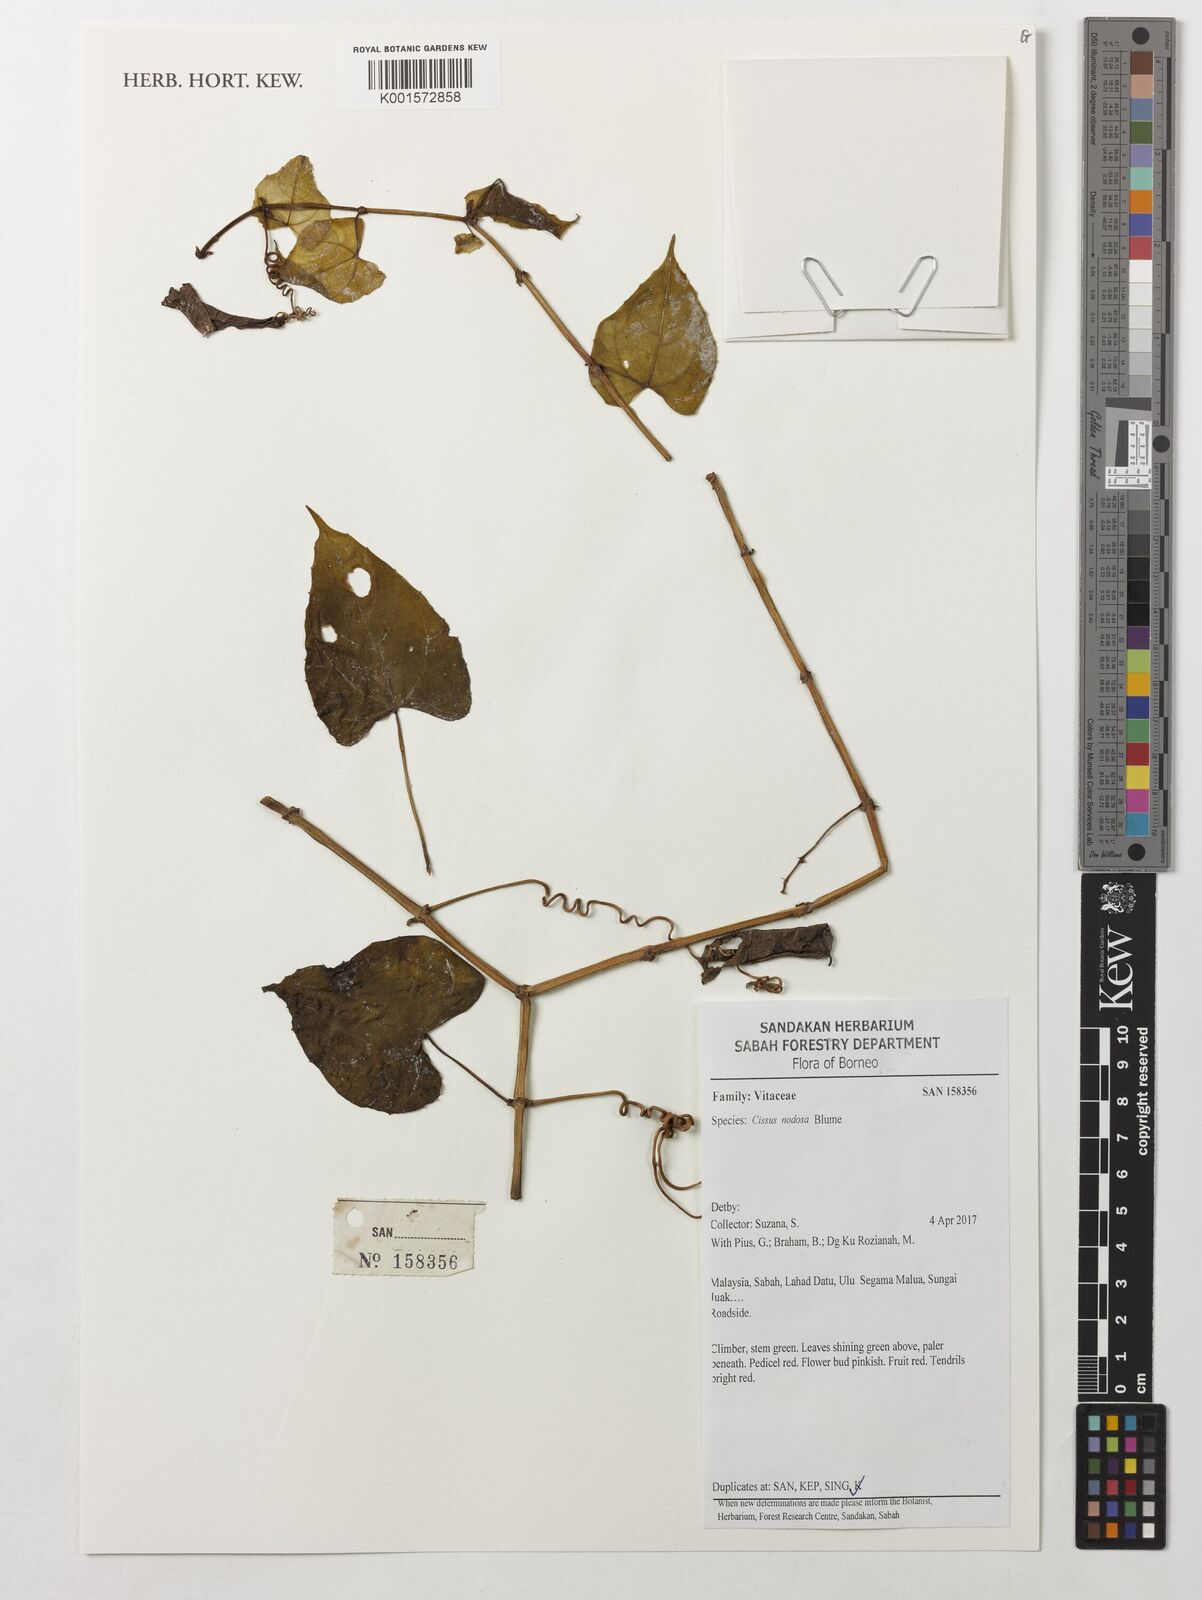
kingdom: Plantae
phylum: Tracheophyta
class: Magnoliopsida
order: Vitales
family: Vitaceae
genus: Cissus
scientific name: Cissus nodosa
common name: Grape ivy
